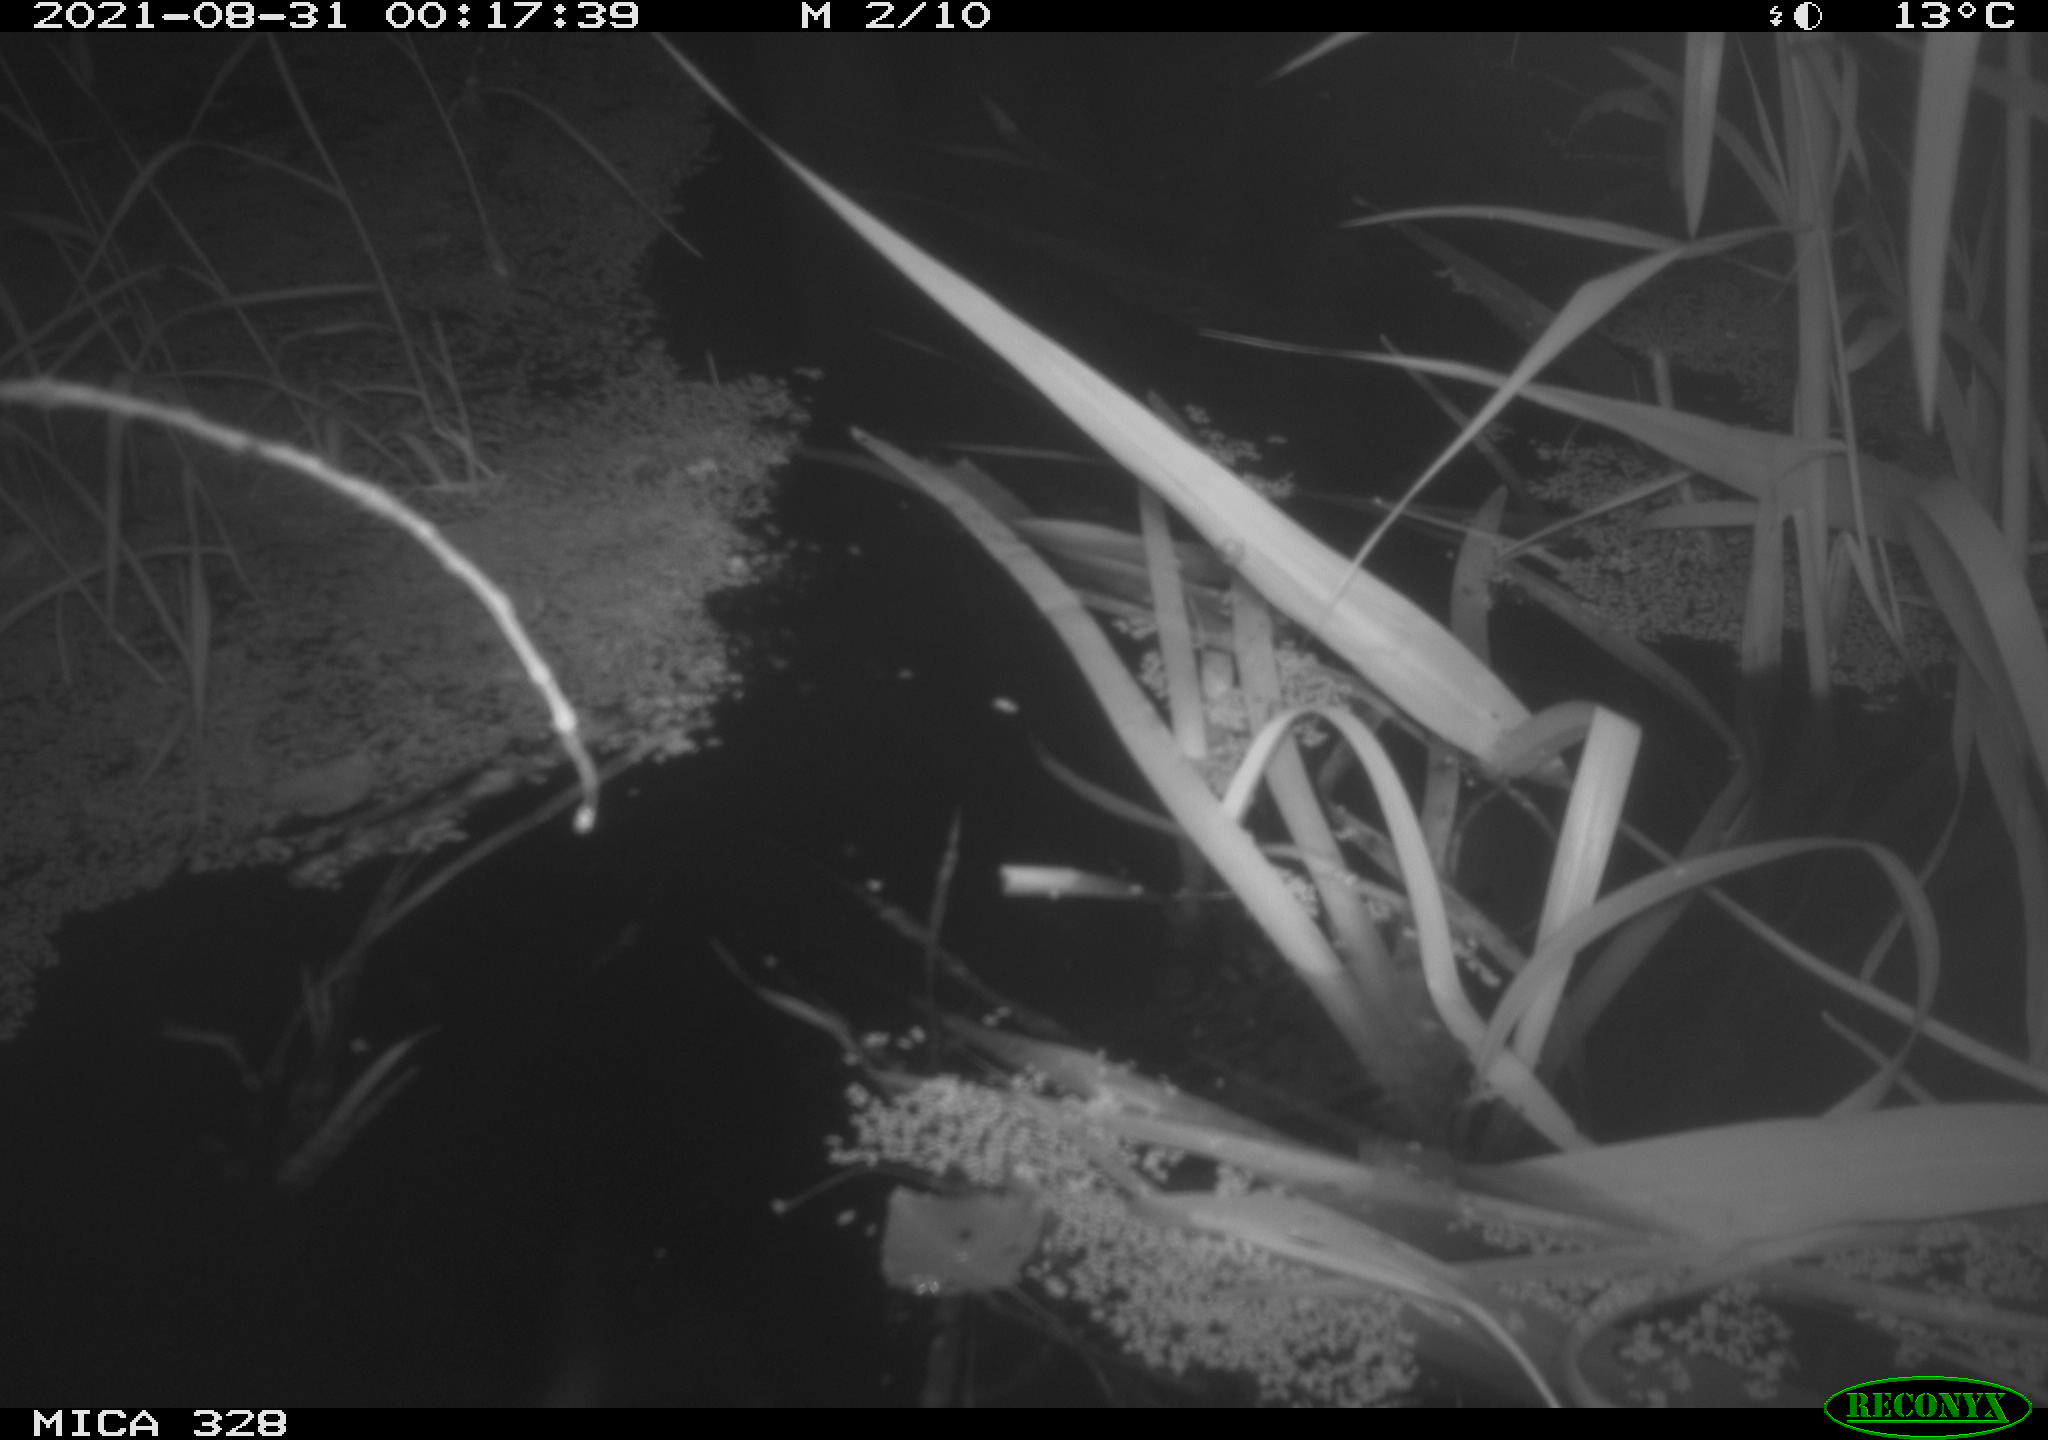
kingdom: Animalia
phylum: Chordata
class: Mammalia
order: Rodentia
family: Cricetidae
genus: Ondatra
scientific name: Ondatra zibethicus
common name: Muskrat
